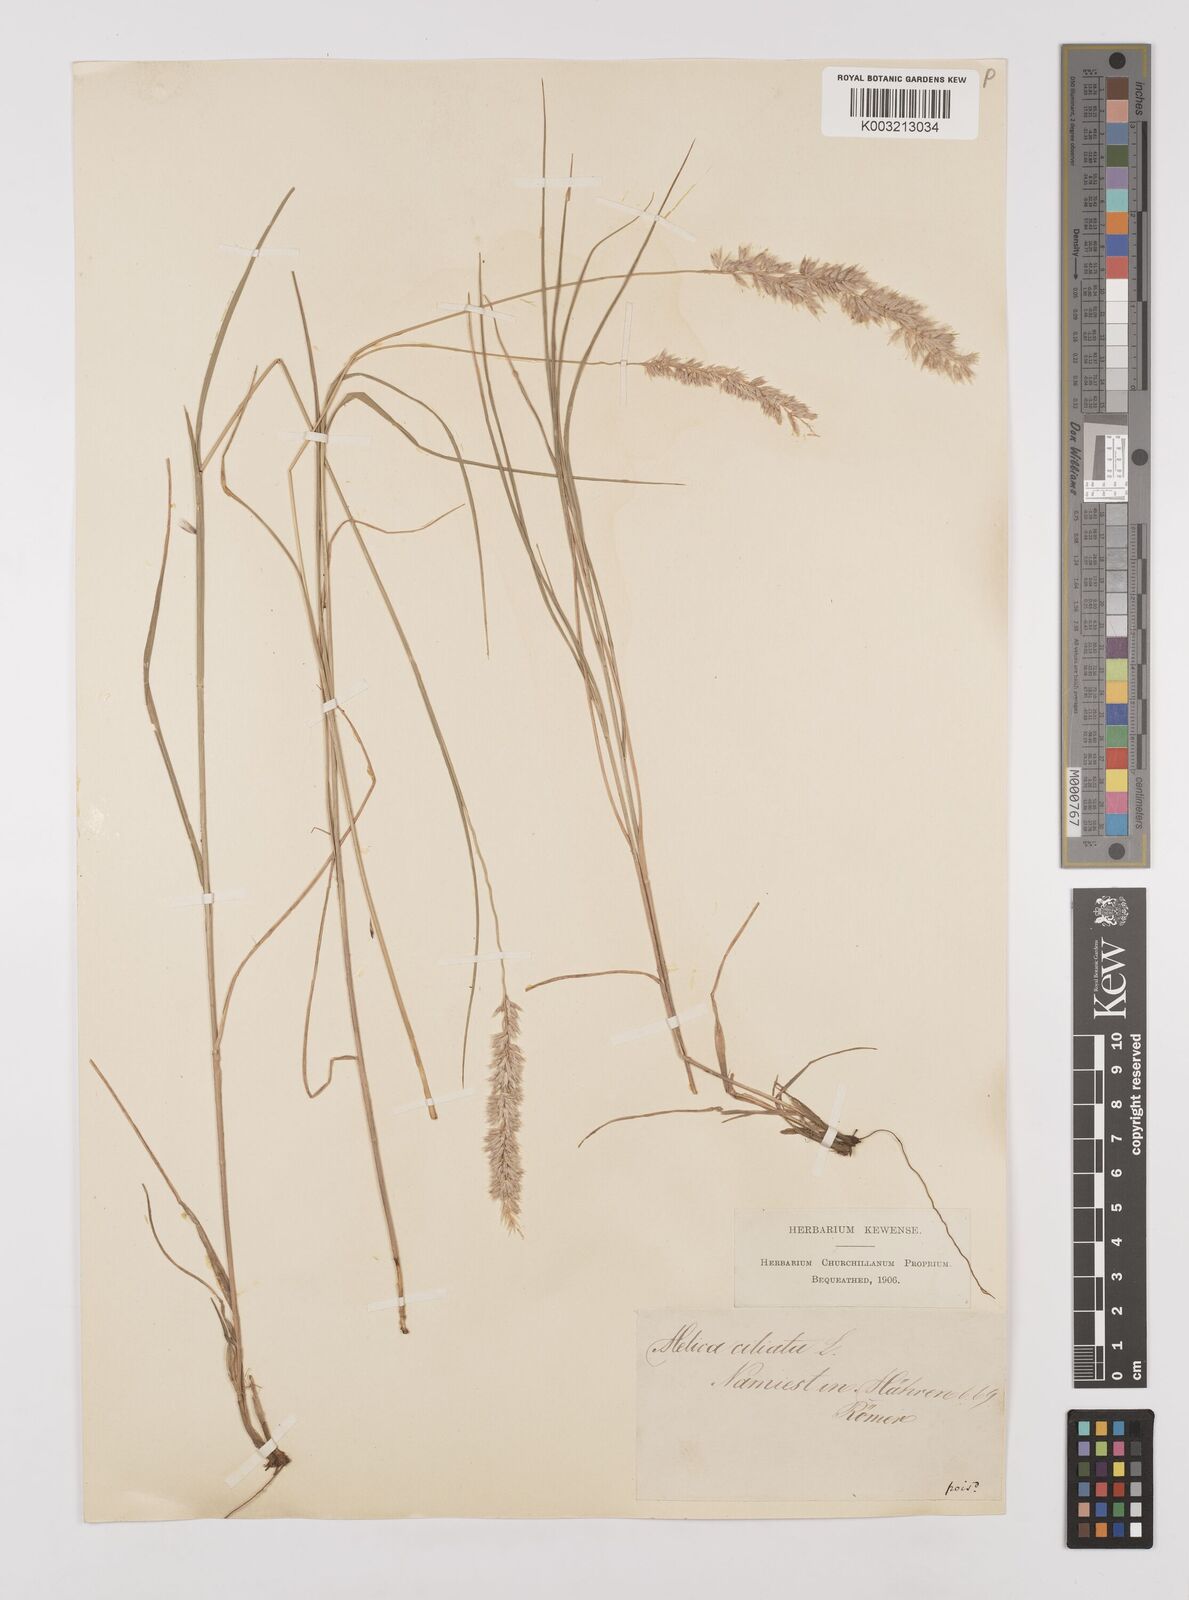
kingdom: Plantae
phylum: Tracheophyta
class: Liliopsida
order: Poales
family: Poaceae
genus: Melica
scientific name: Melica ciliata
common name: Hairy melicgrass
